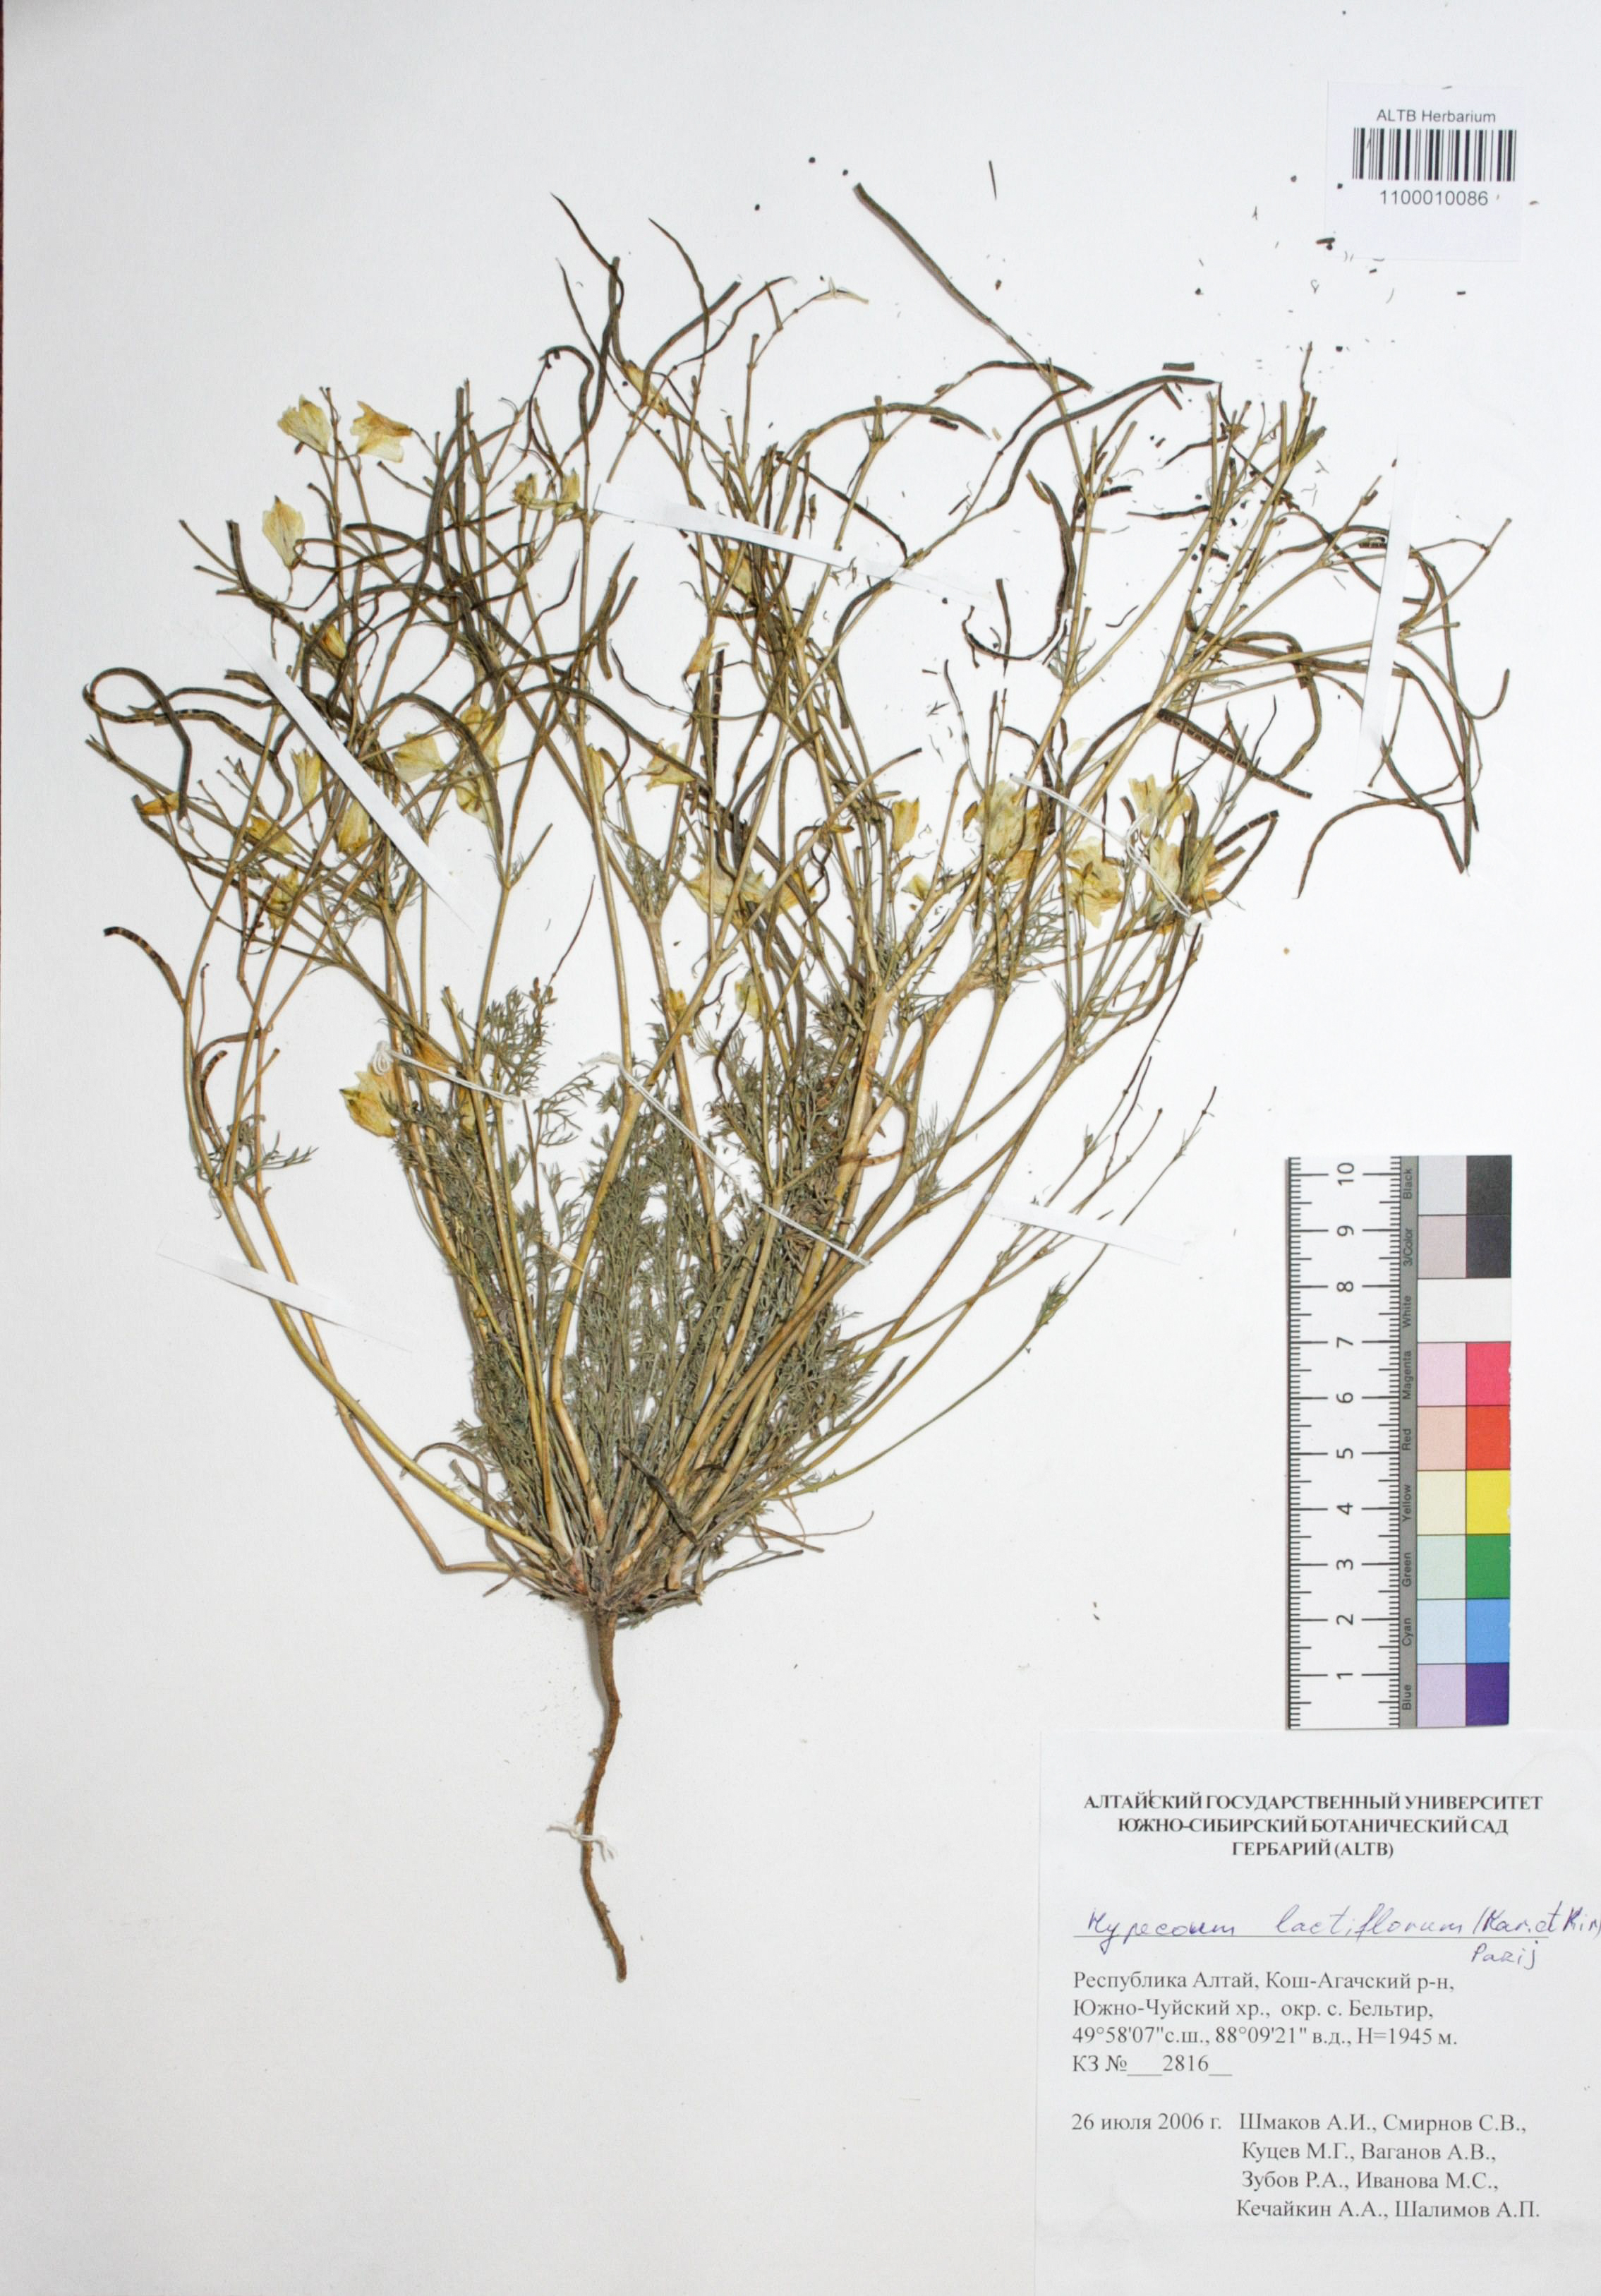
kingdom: Plantae
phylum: Tracheophyta
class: Magnoliopsida
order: Ranunculales
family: Papaveraceae
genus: Hypecoum
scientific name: Hypecoum lactiflorum
